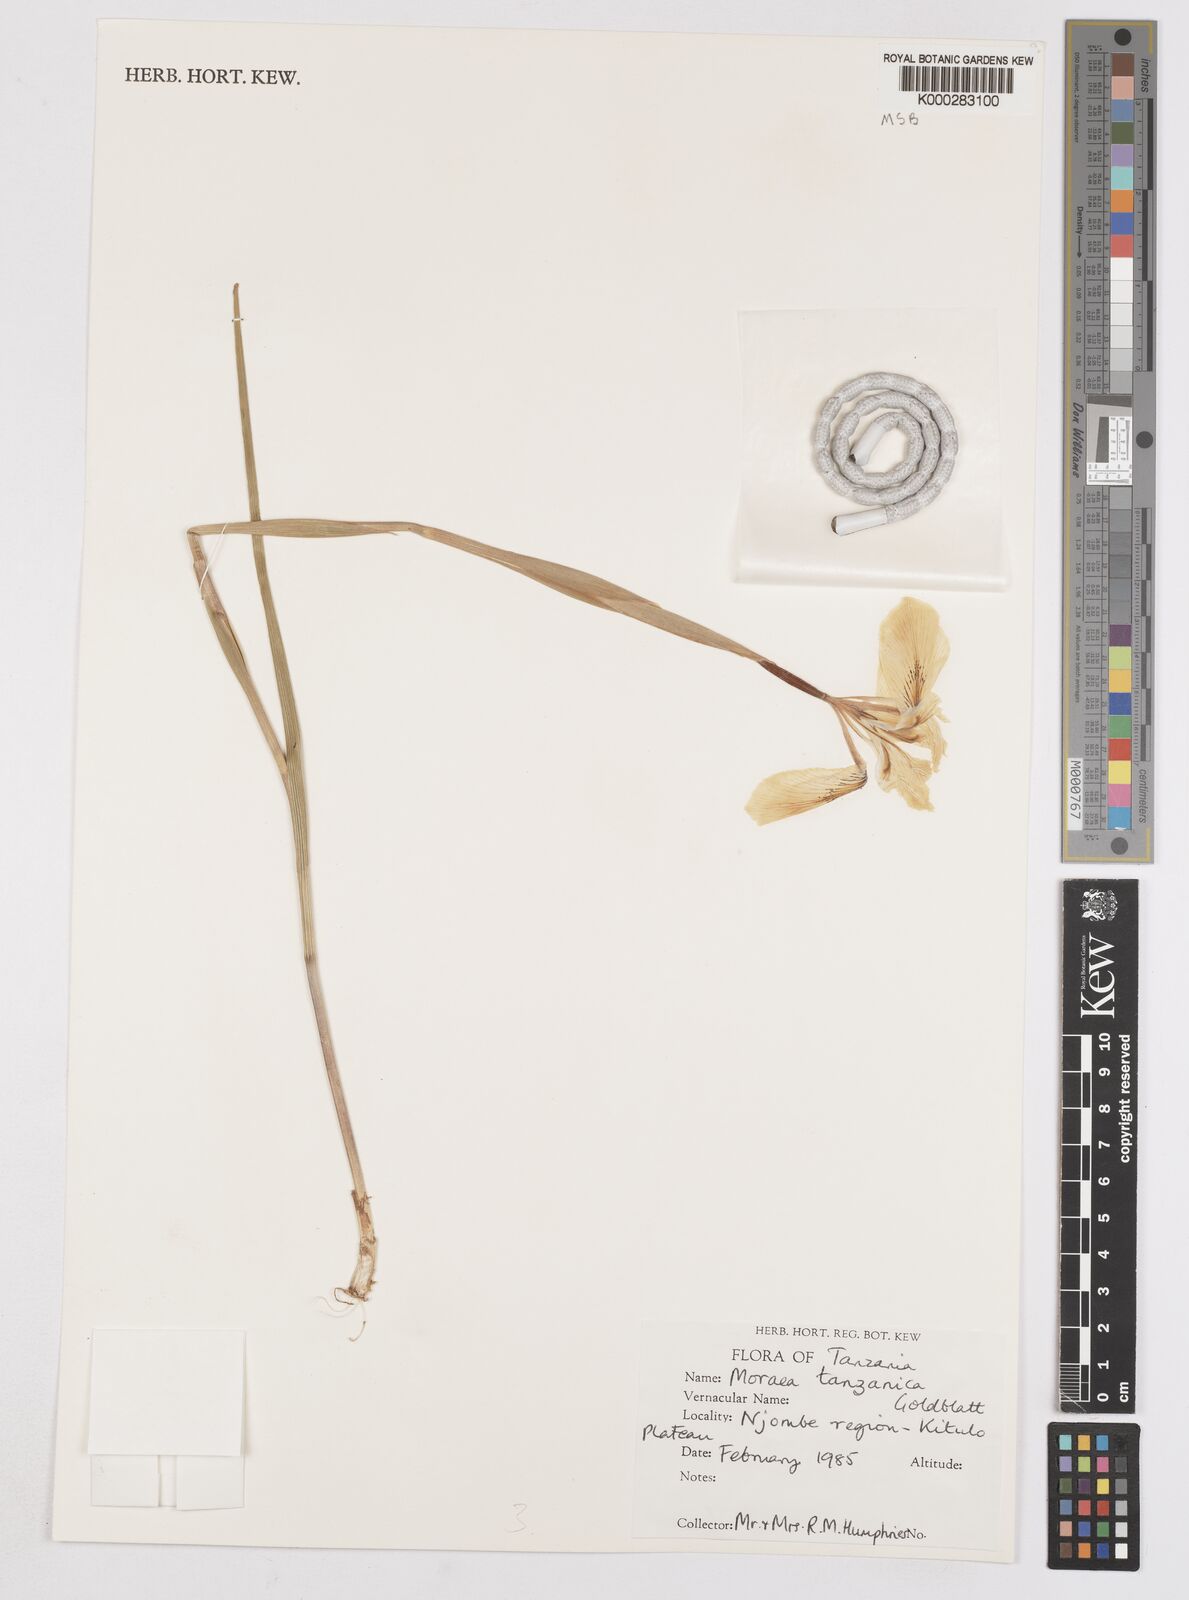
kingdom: Plantae
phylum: Tracheophyta
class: Liliopsida
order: Asparagales
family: Iridaceae
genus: Moraea
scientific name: Moraea tanzanica
